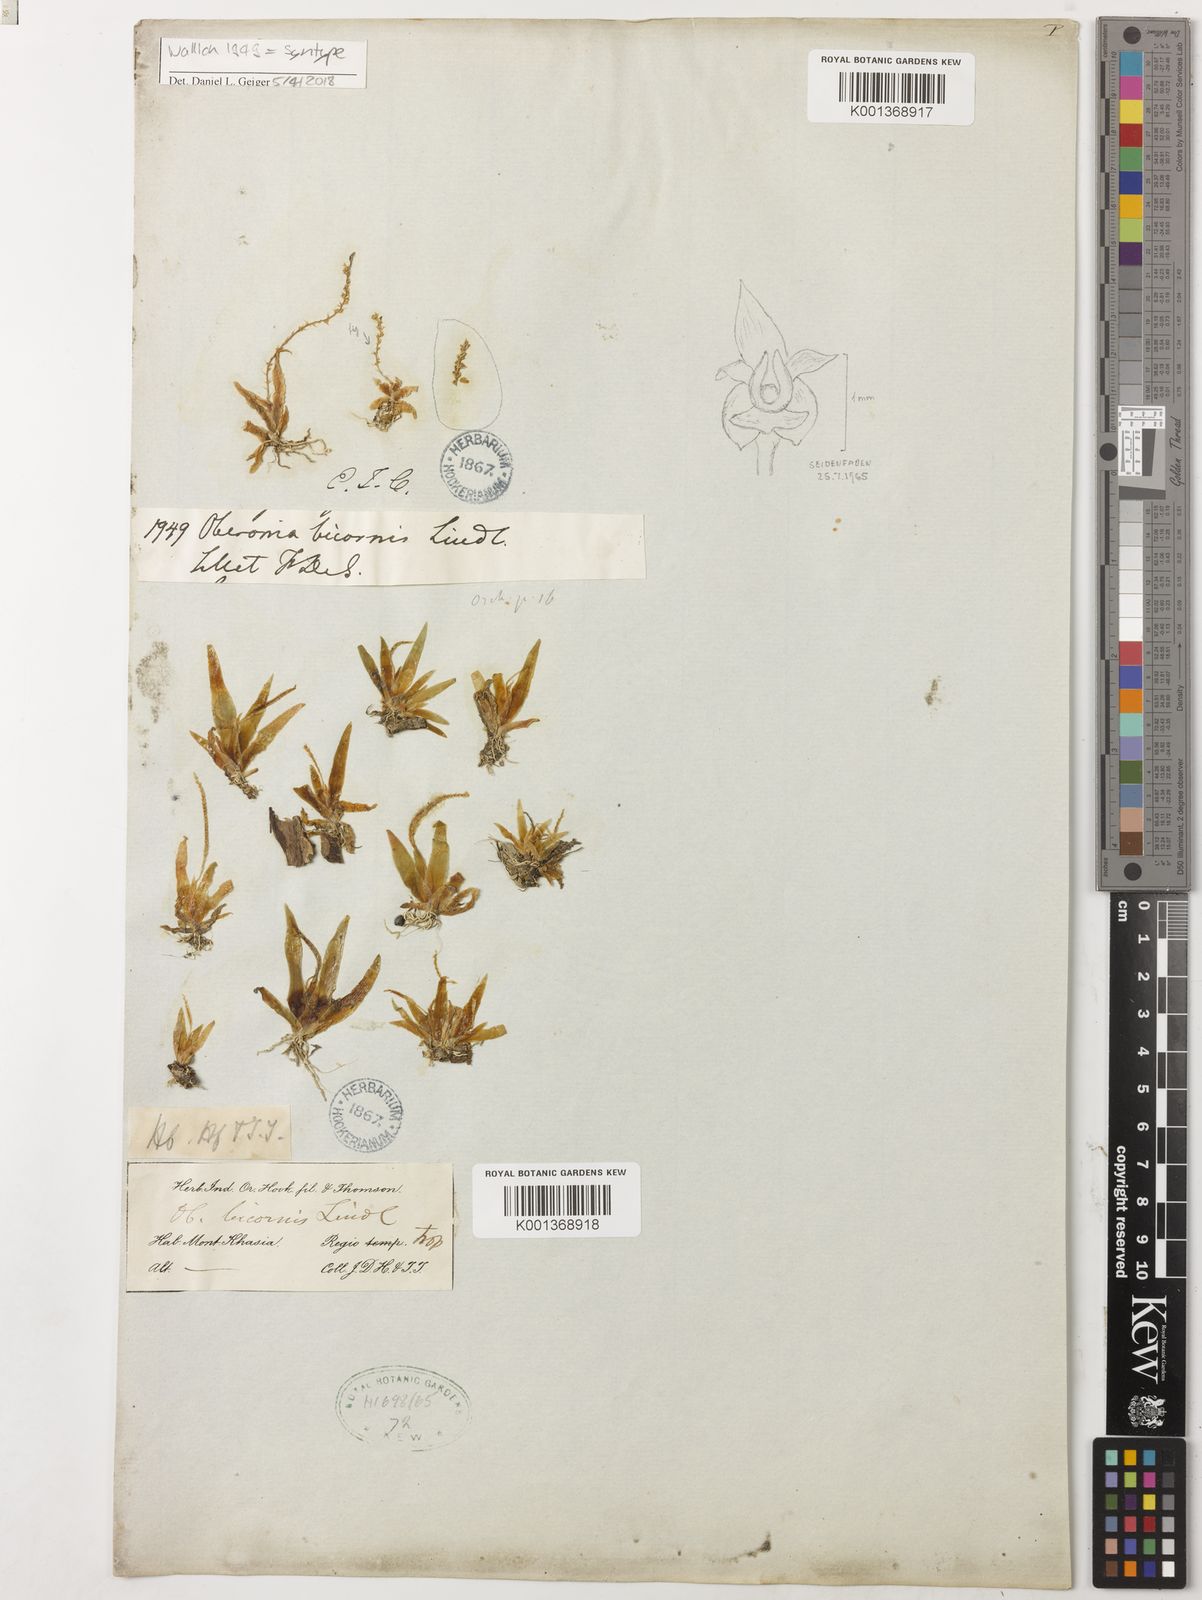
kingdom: Plantae
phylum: Tracheophyta
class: Liliopsida
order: Asparagales
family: Orchidaceae
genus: Oberonia
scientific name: Oberonia bicornis
